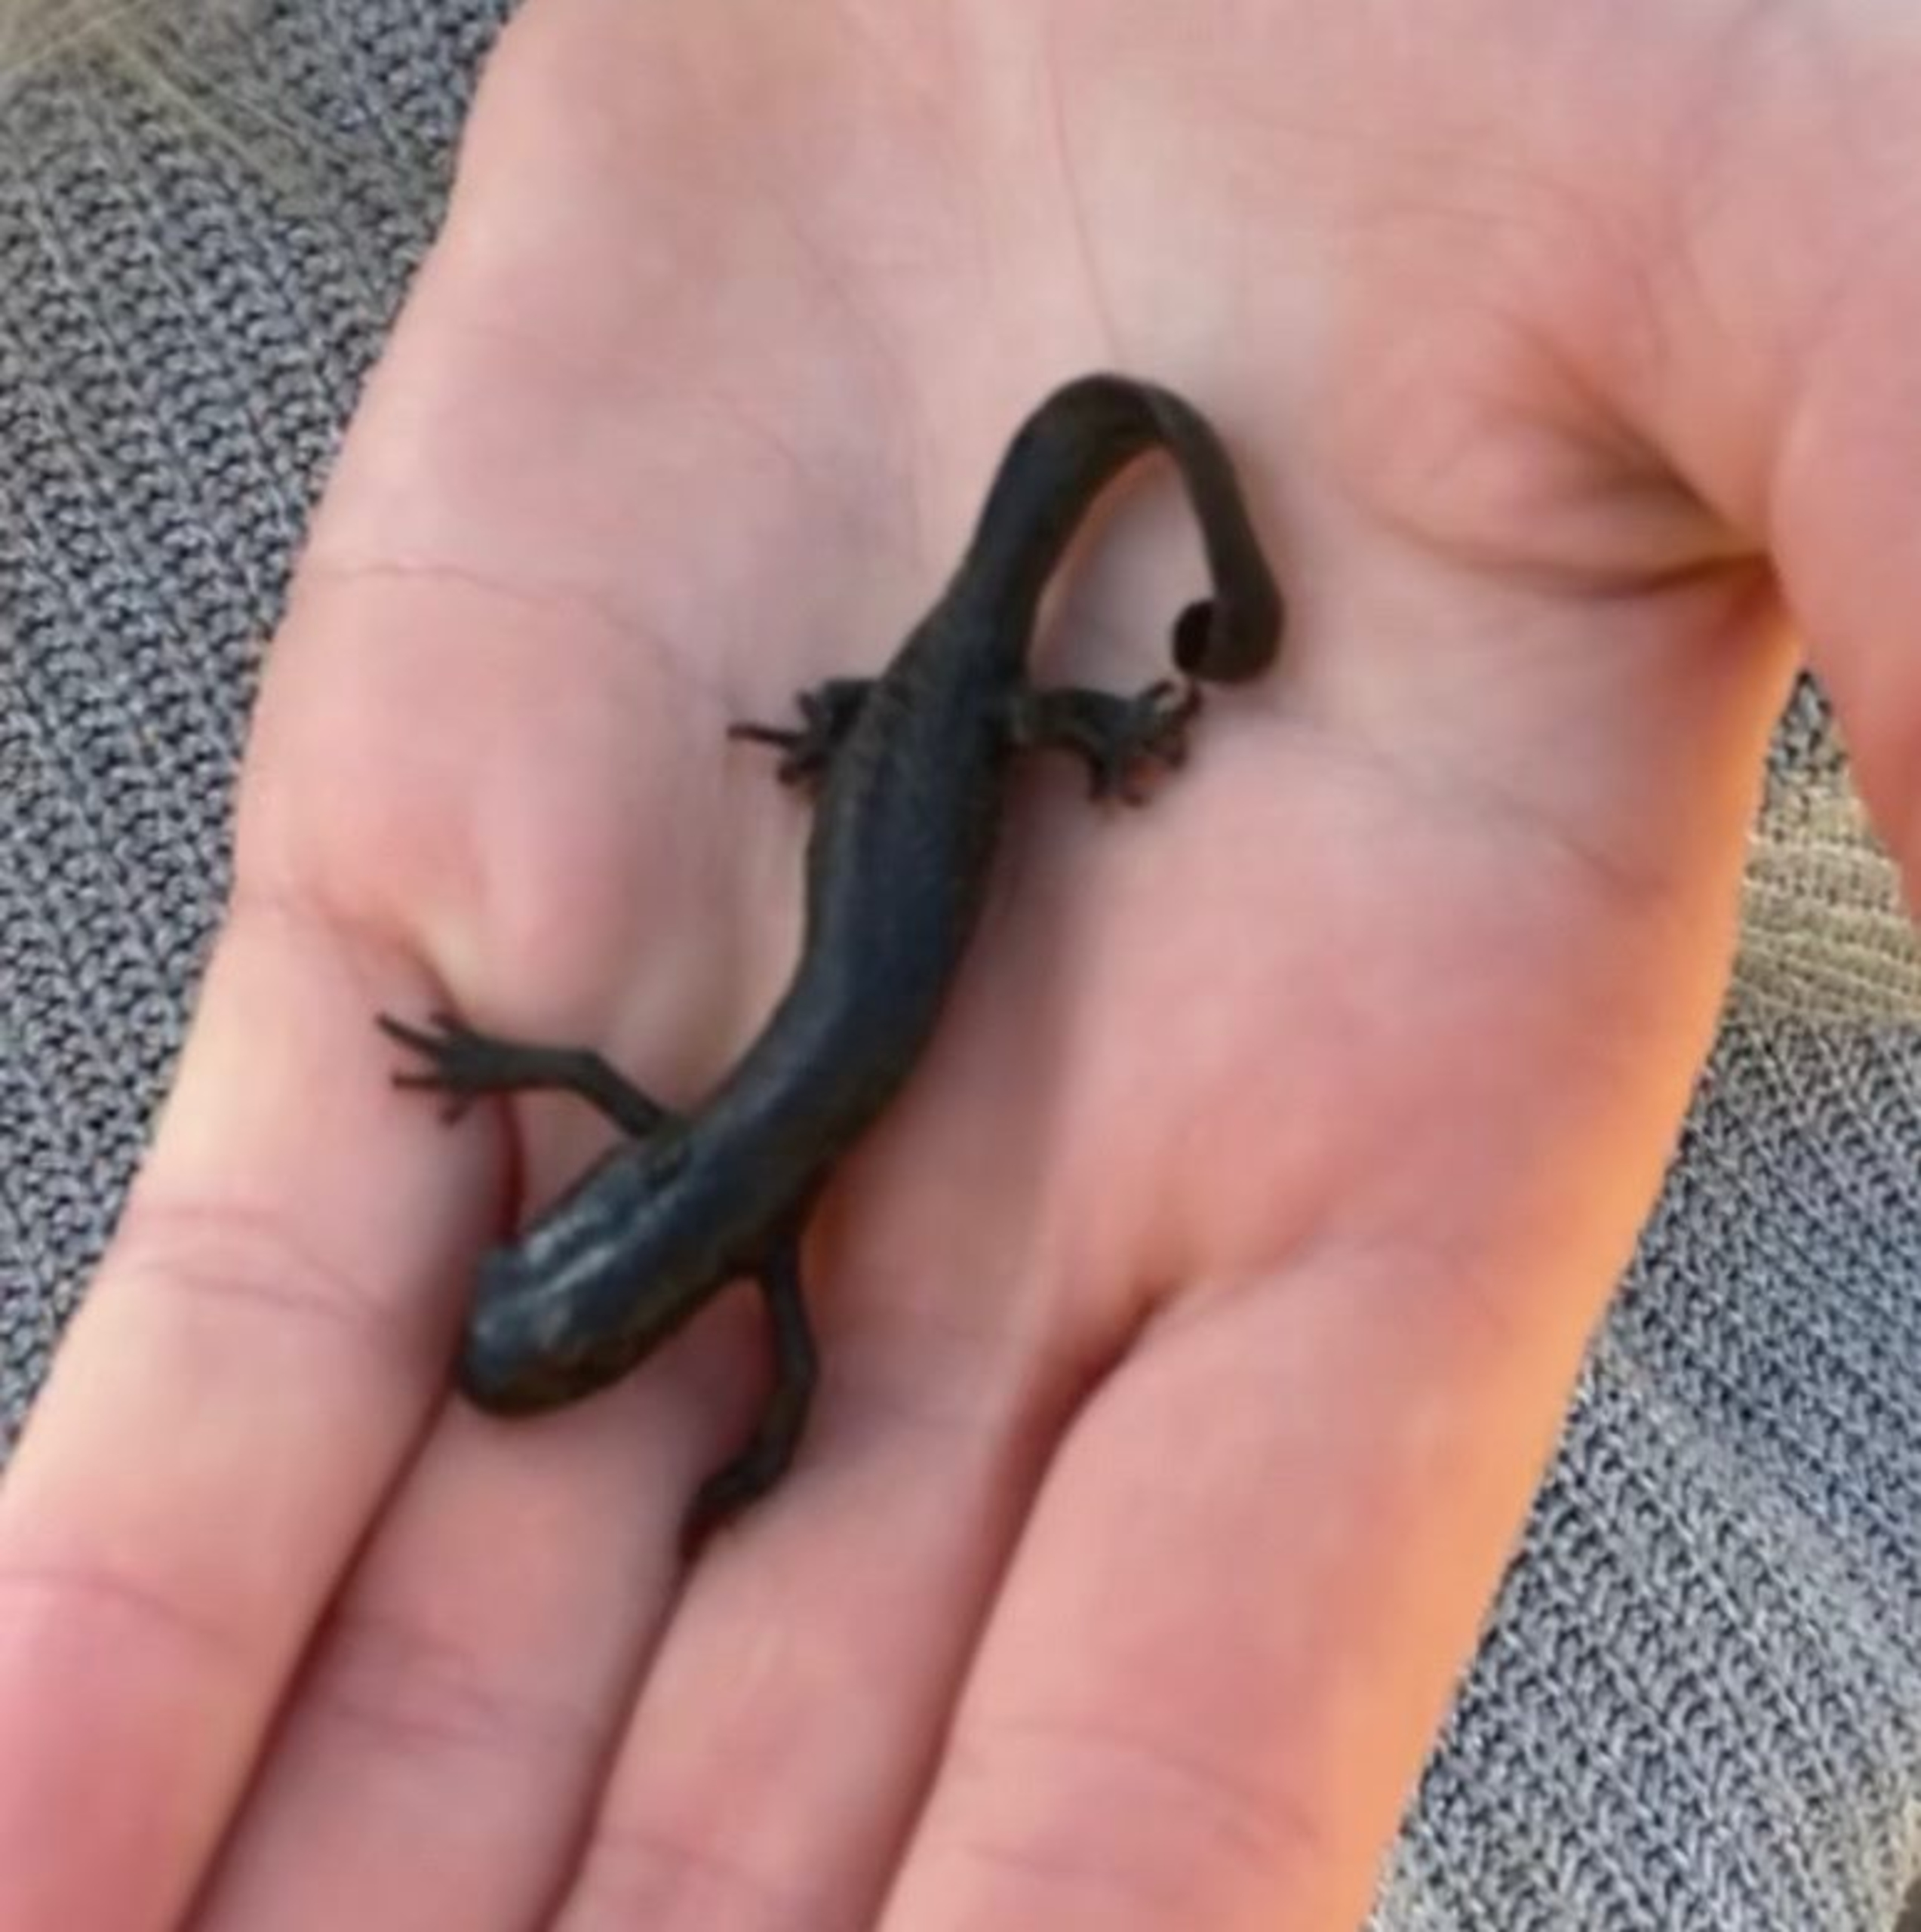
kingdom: Animalia
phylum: Chordata
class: Amphibia
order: Caudata
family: Salamandridae
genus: Triturus
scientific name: Triturus cristatus
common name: Stor vandsalamander
